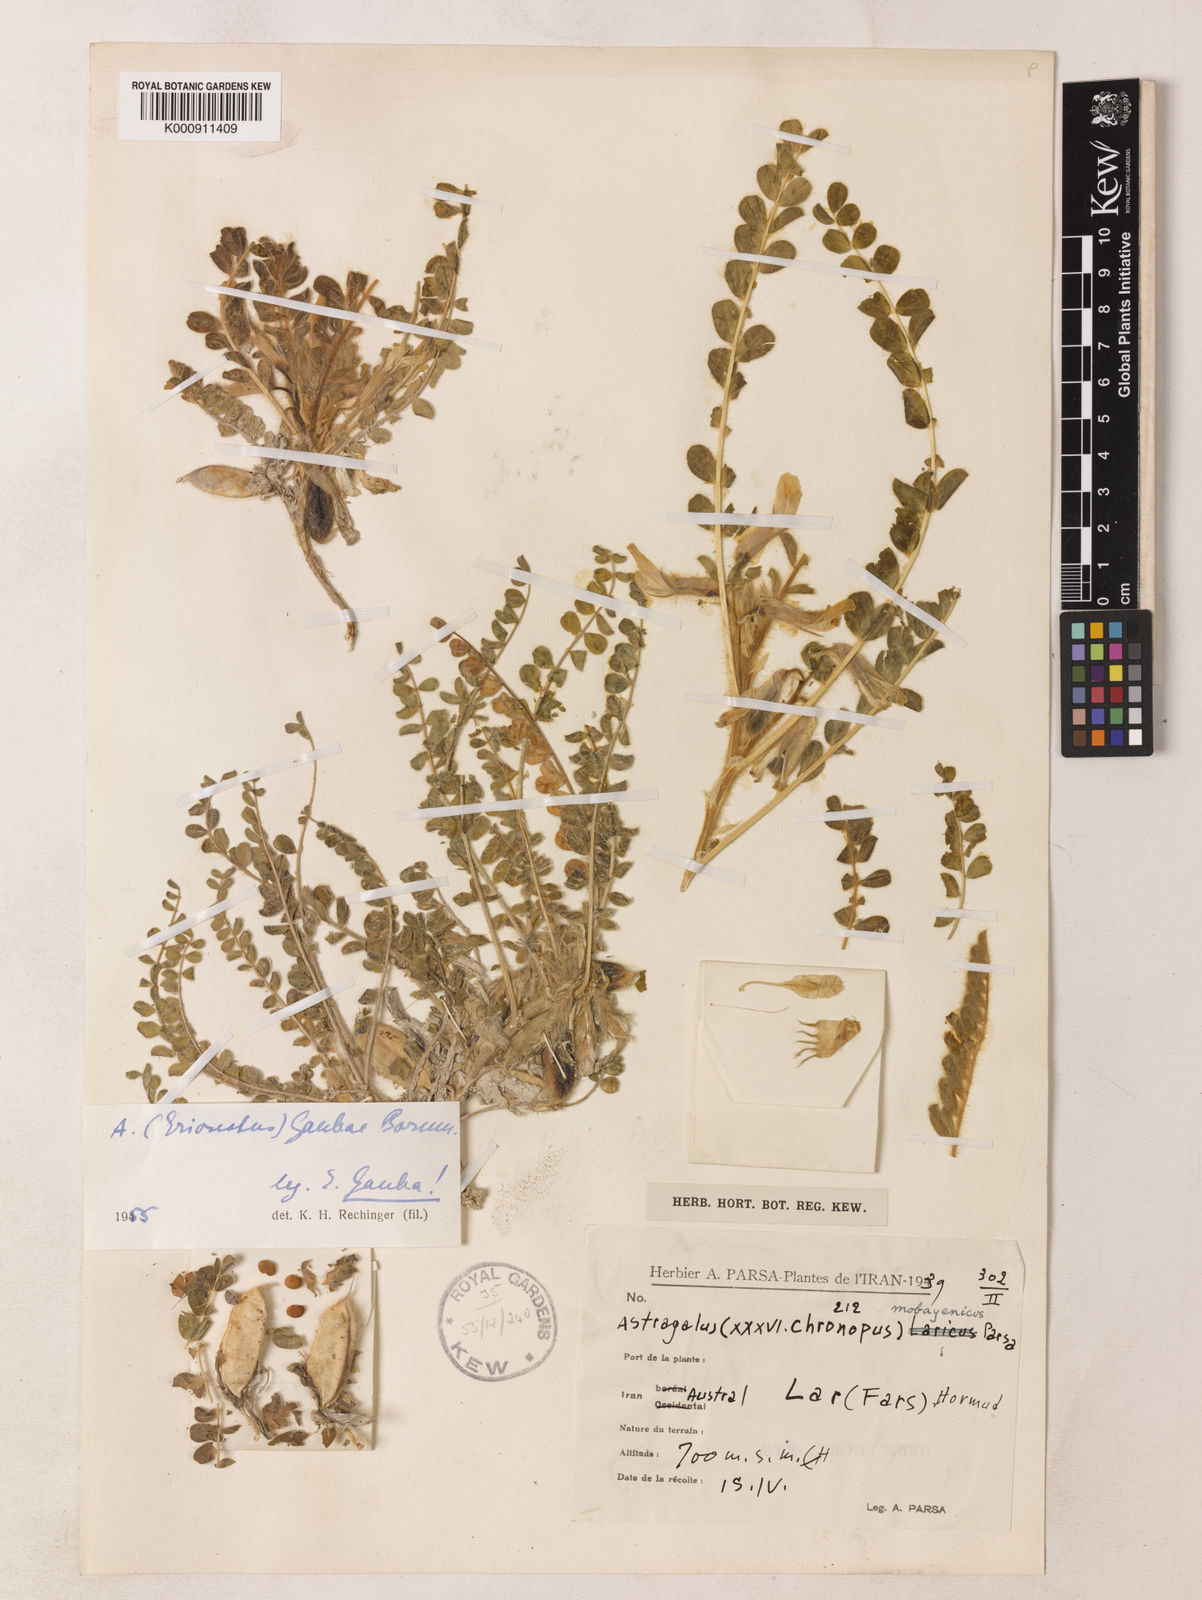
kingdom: Plantae
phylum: Tracheophyta
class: Magnoliopsida
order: Fabales
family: Fabaceae
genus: Astragalus
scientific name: Astragalus gaubae
